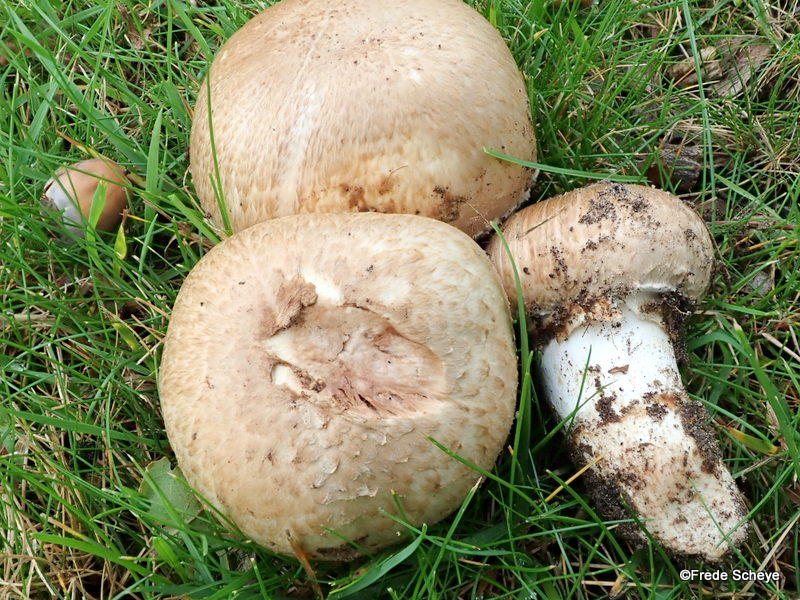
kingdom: Fungi
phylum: Basidiomycota
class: Agaricomycetes
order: Agaricales
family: Agaricaceae
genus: Agaricus
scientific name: Agaricus subperonatus
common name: knippe-champignon
